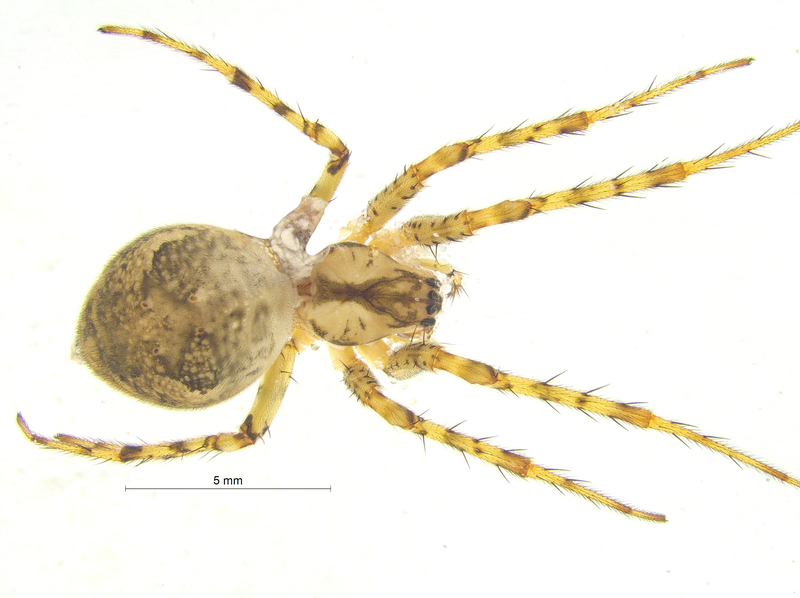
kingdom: Animalia
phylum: Arthropoda
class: Arachnida
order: Araneae
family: Tetragnathidae
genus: Metellina
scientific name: Metellina merianae
